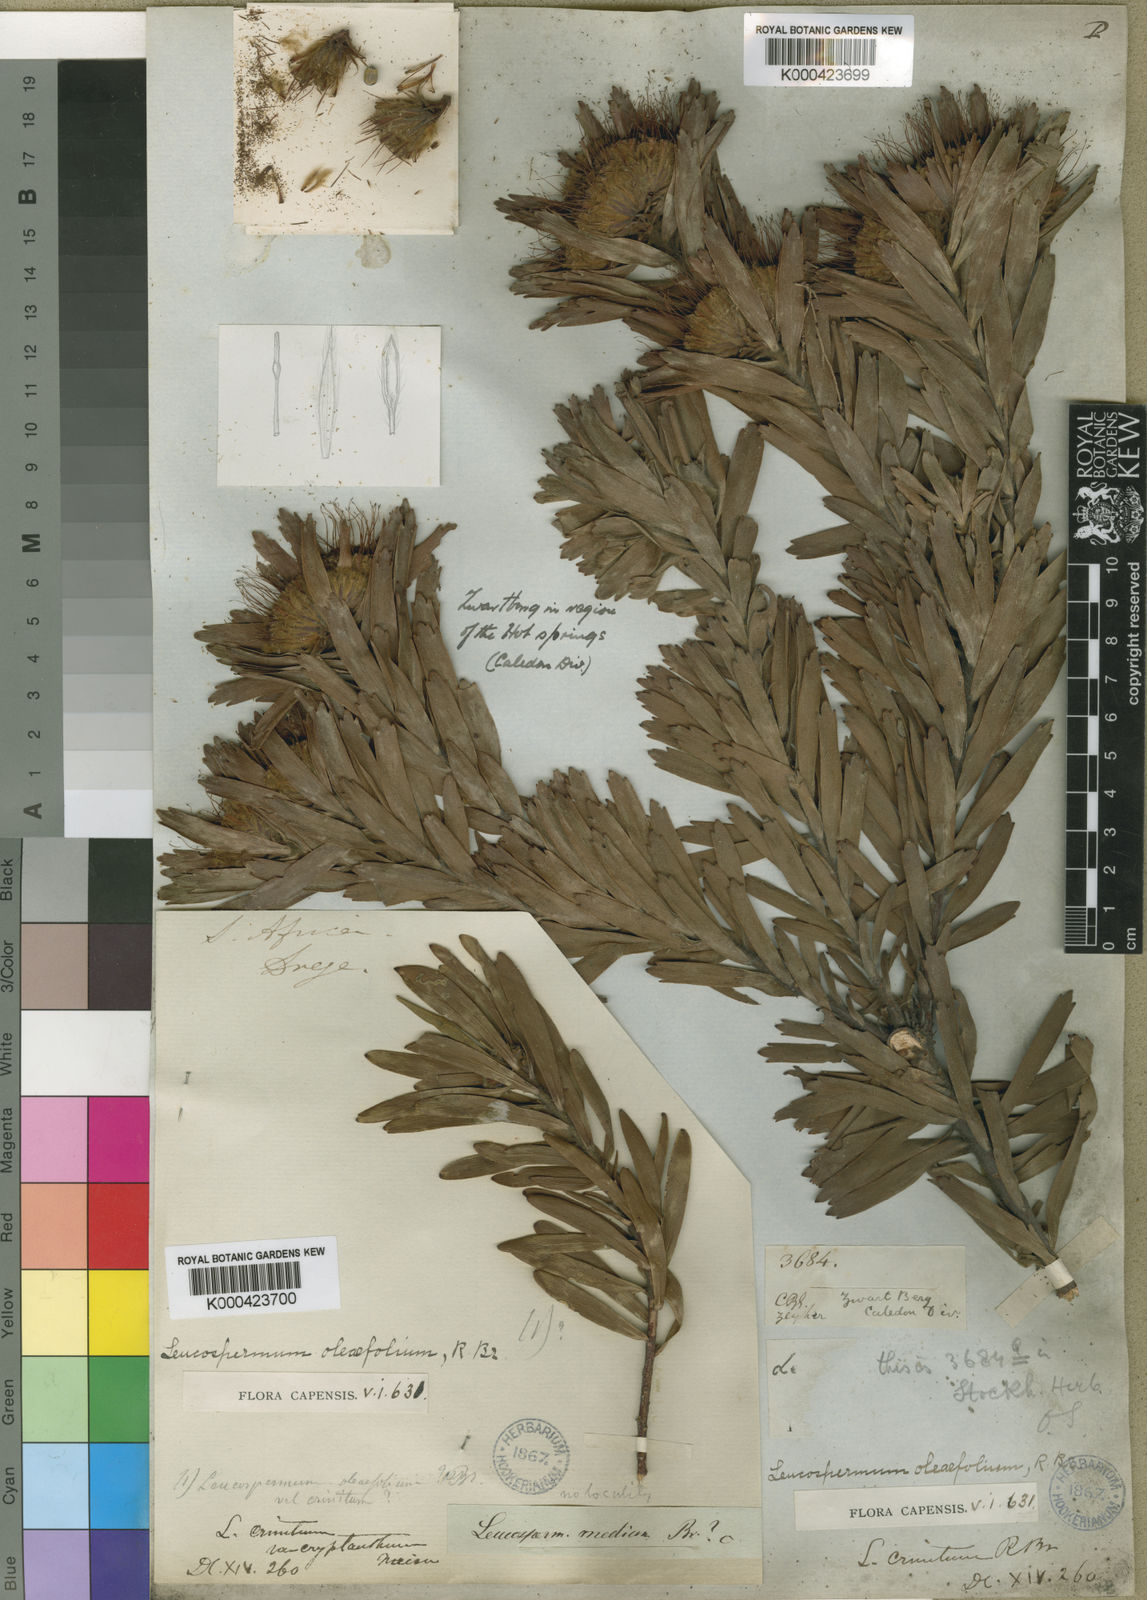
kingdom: Plantae
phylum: Tracheophyta
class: Magnoliopsida
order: Proteales
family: Proteaceae
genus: Leucospermum
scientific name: Leucospermum oleifolium
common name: Matches
